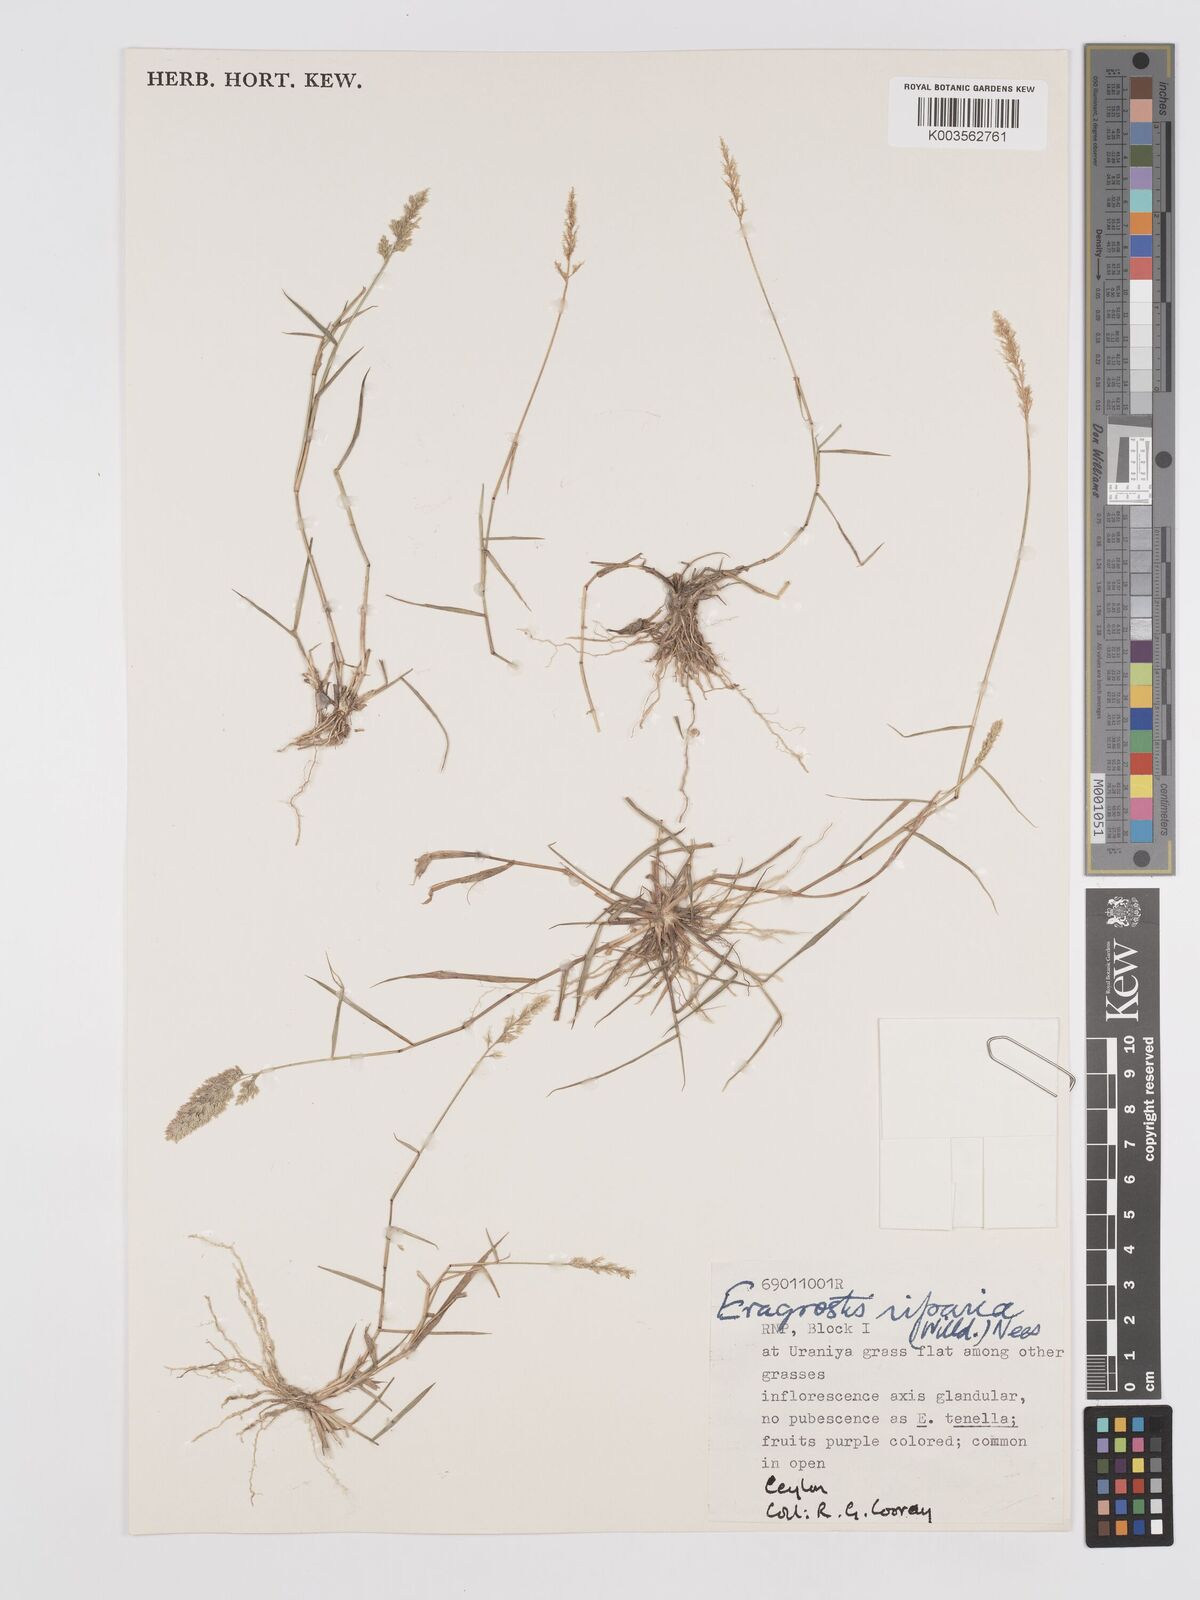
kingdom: Plantae
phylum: Tracheophyta
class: Liliopsida
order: Poales
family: Poaceae
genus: Eragrostis
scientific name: Eragrostis riparia
